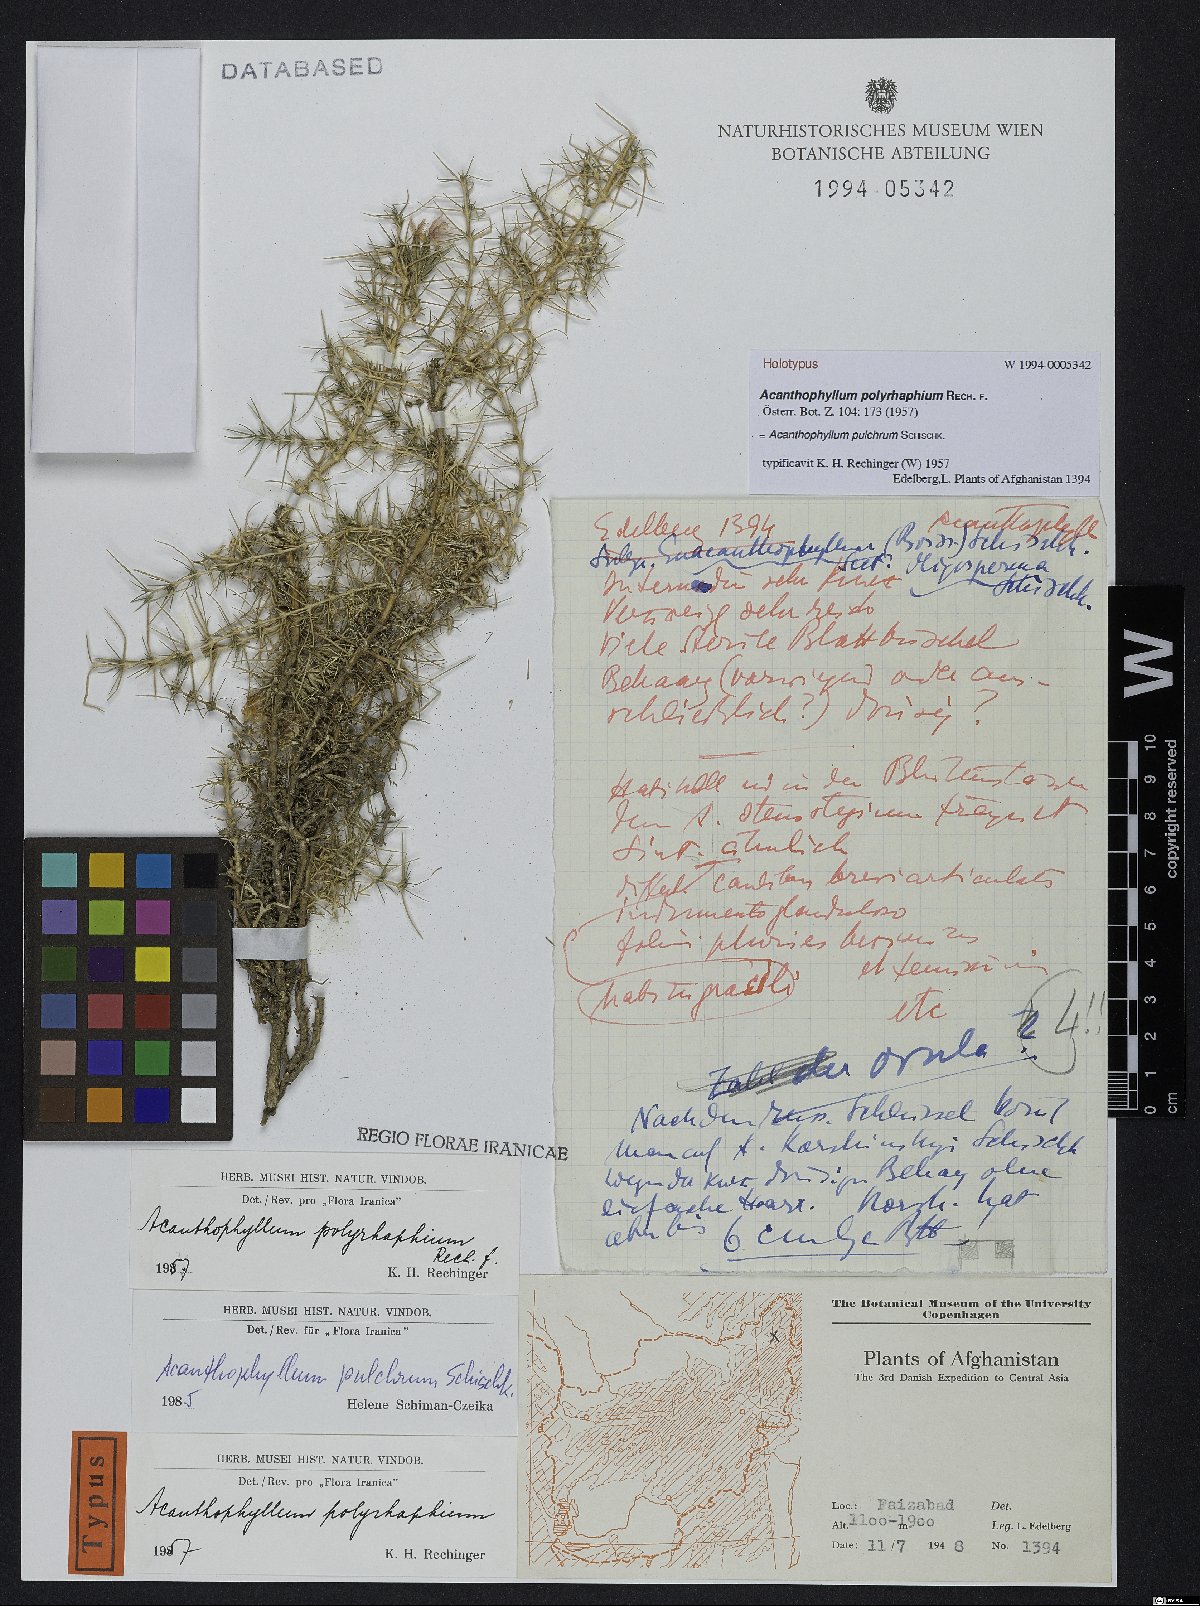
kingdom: Plantae
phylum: Tracheophyta
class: Magnoliopsida
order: Caryophyllales
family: Caryophyllaceae
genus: Acanthophyllum
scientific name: Acanthophyllum pulchrum
